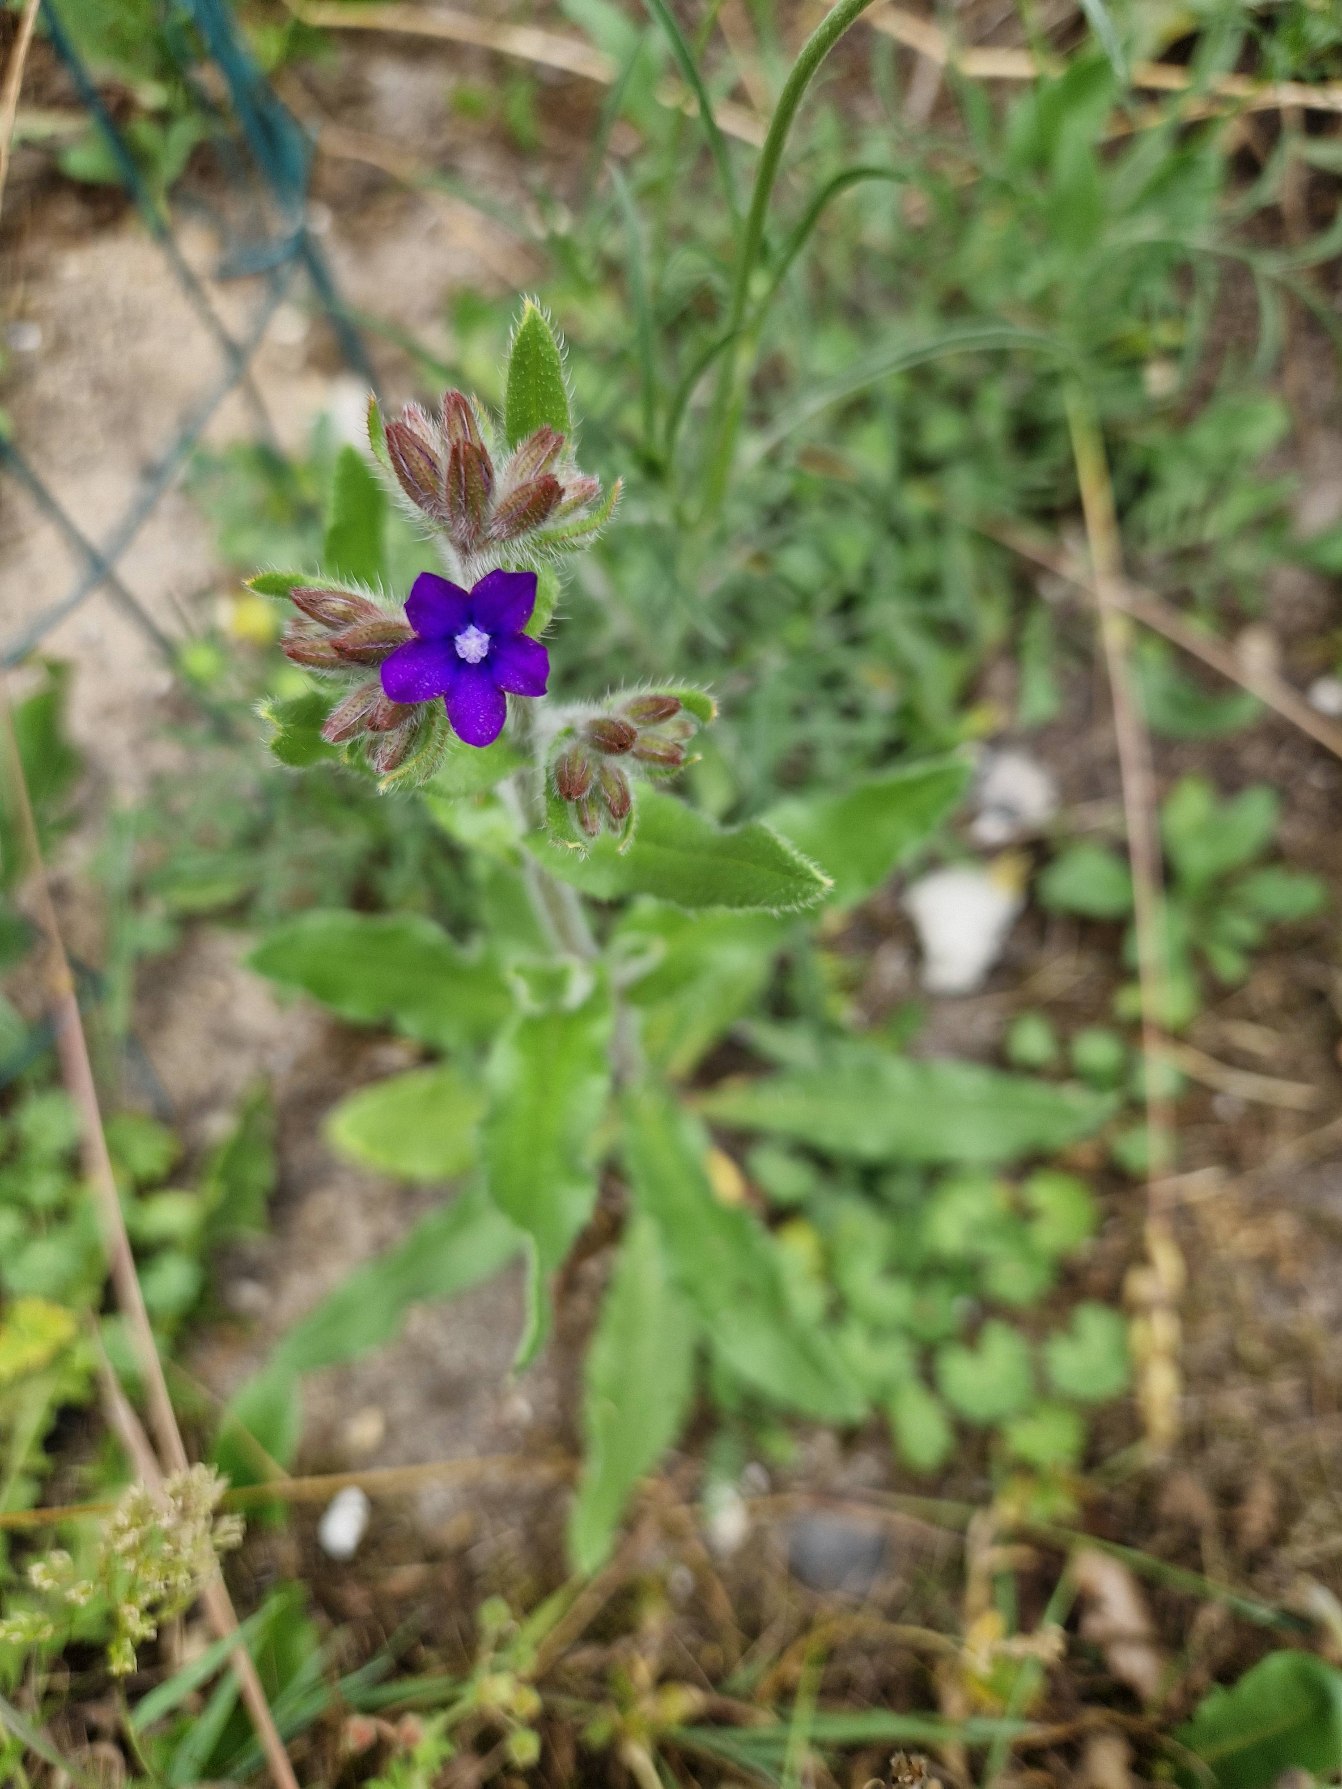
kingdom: Plantae
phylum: Tracheophyta
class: Magnoliopsida
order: Boraginales
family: Boraginaceae
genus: Anchusa
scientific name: Anchusa officinalis
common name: Læge-oksetunge
